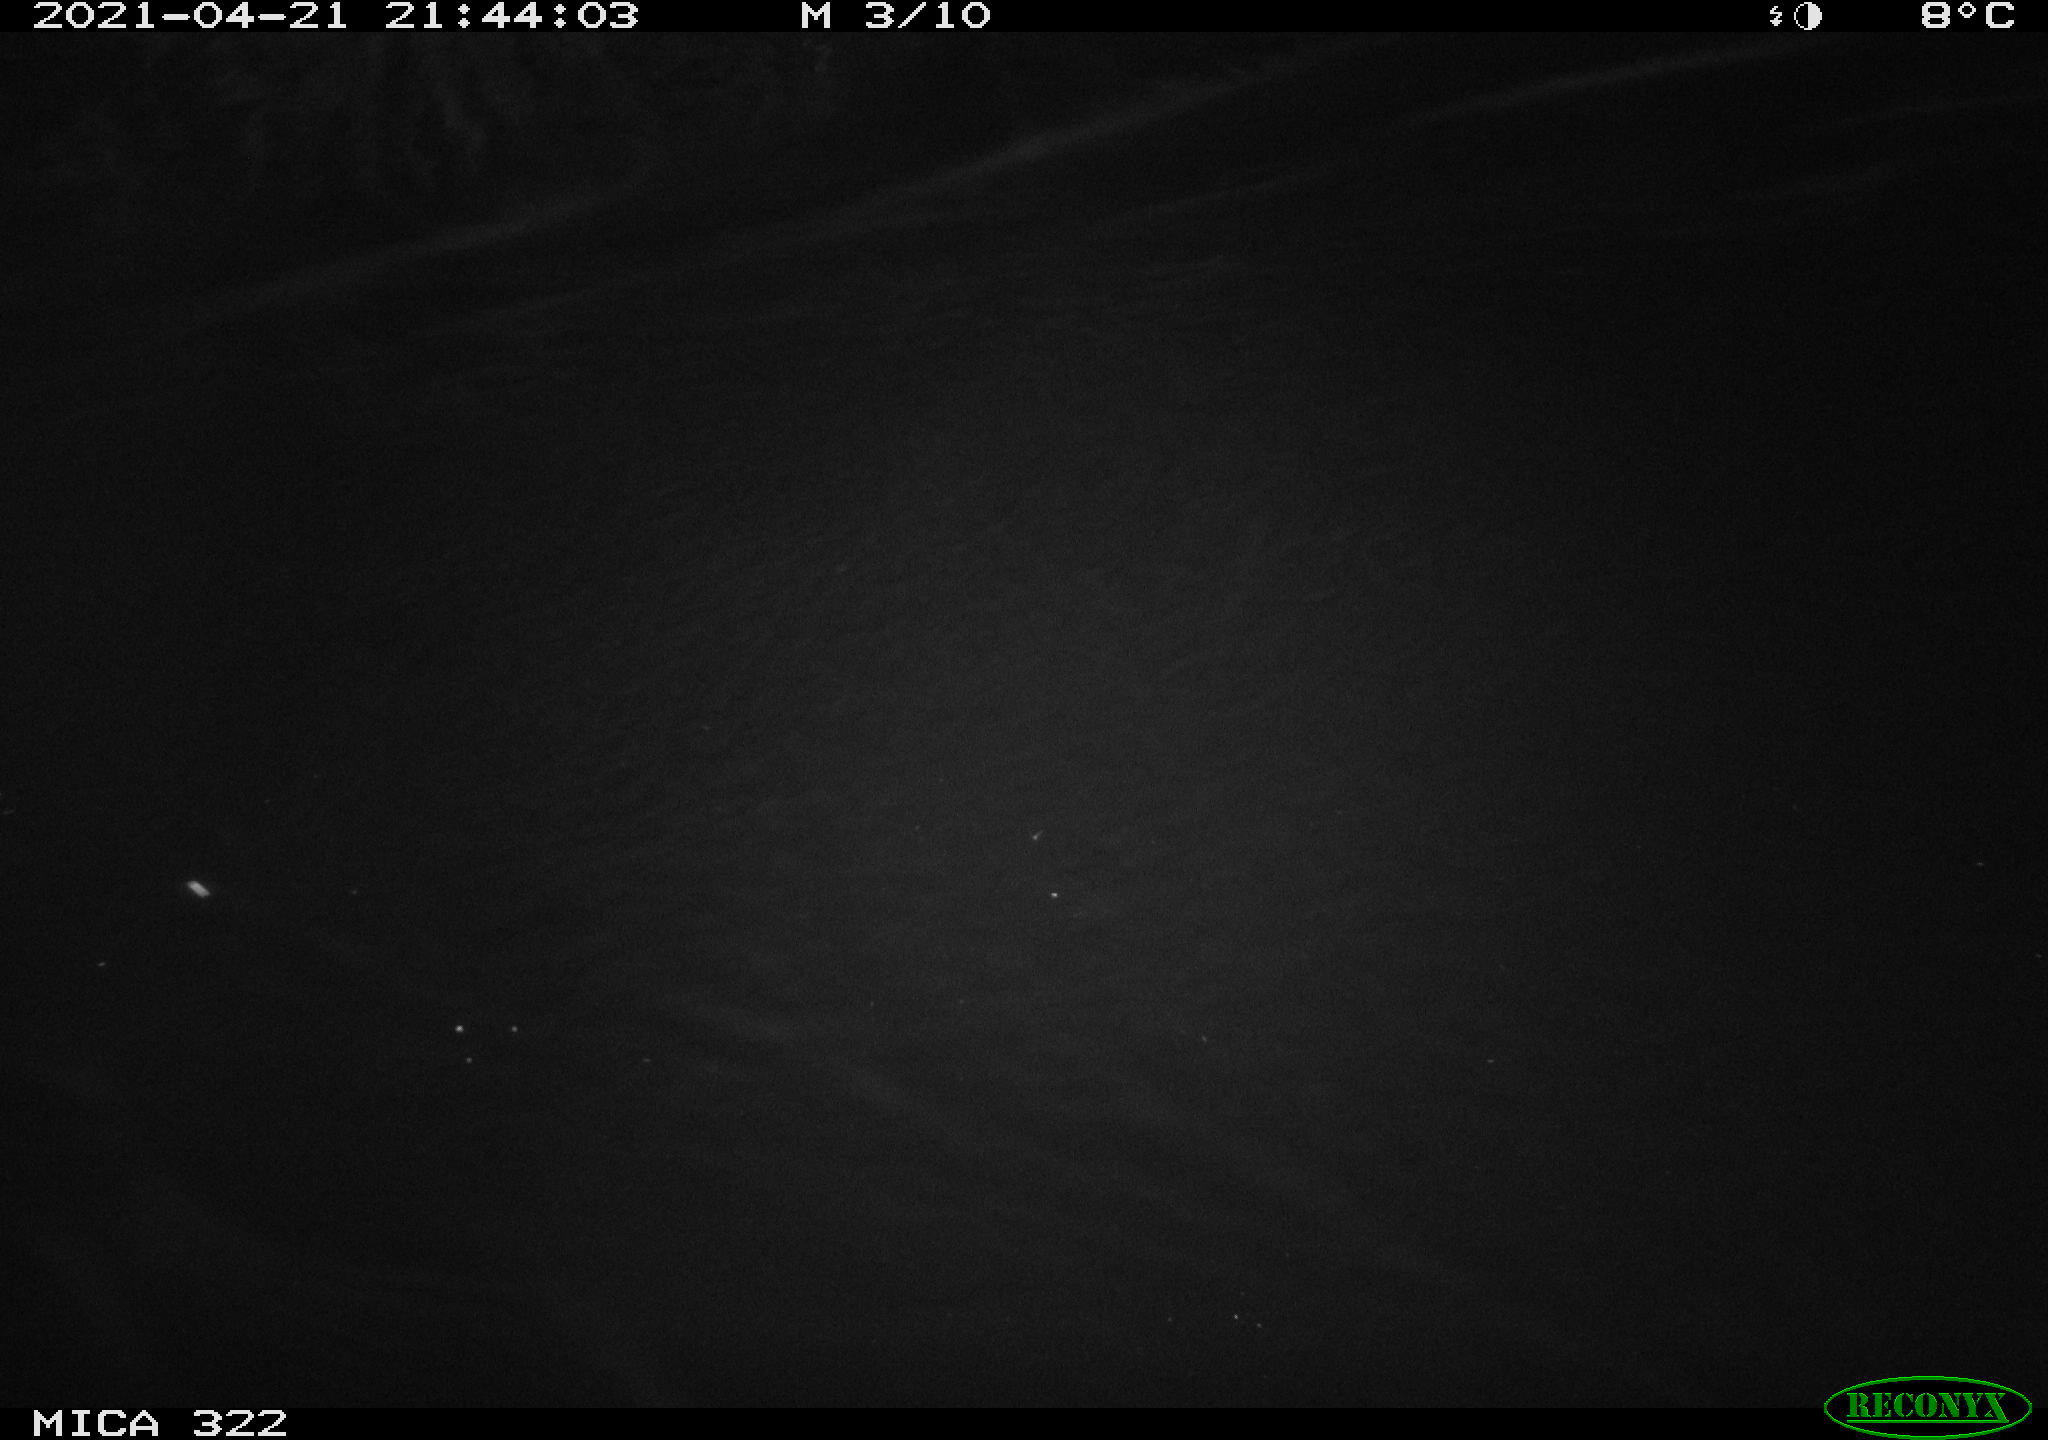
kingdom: Animalia
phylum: Chordata
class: Aves
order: Anseriformes
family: Anatidae
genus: Anas
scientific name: Anas platyrhynchos
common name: Mallard
